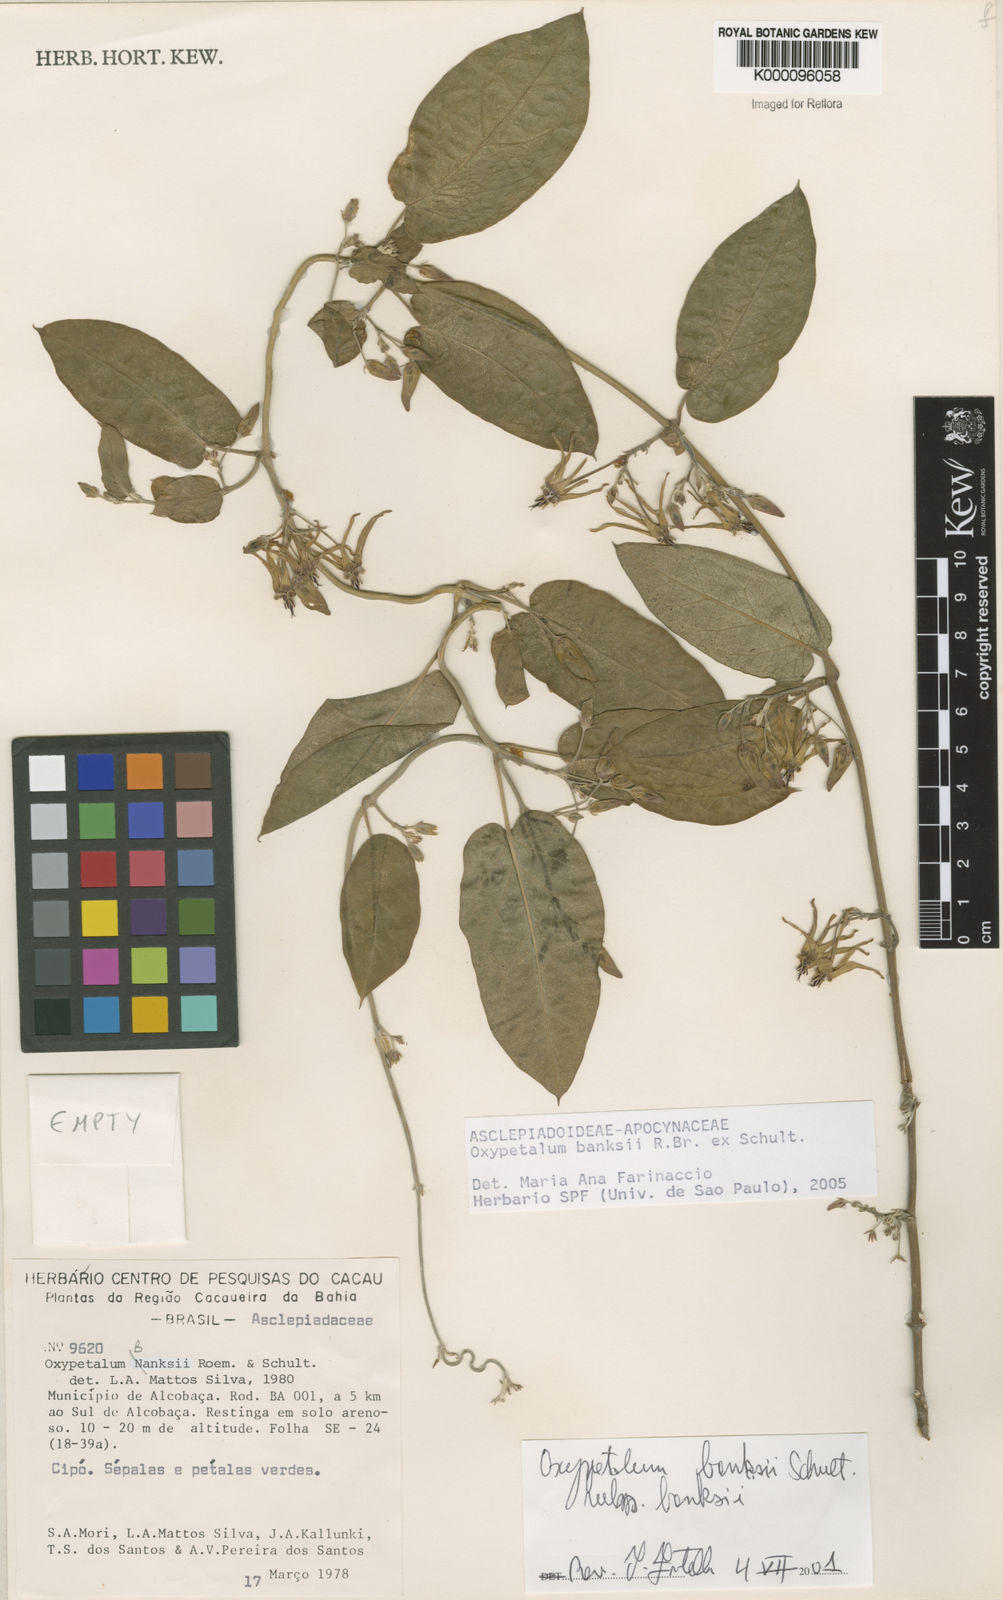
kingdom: Plantae
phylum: Tracheophyta
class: Magnoliopsida
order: Gentianales
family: Apocynaceae
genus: Oxypetalum
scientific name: Oxypetalum banksii
